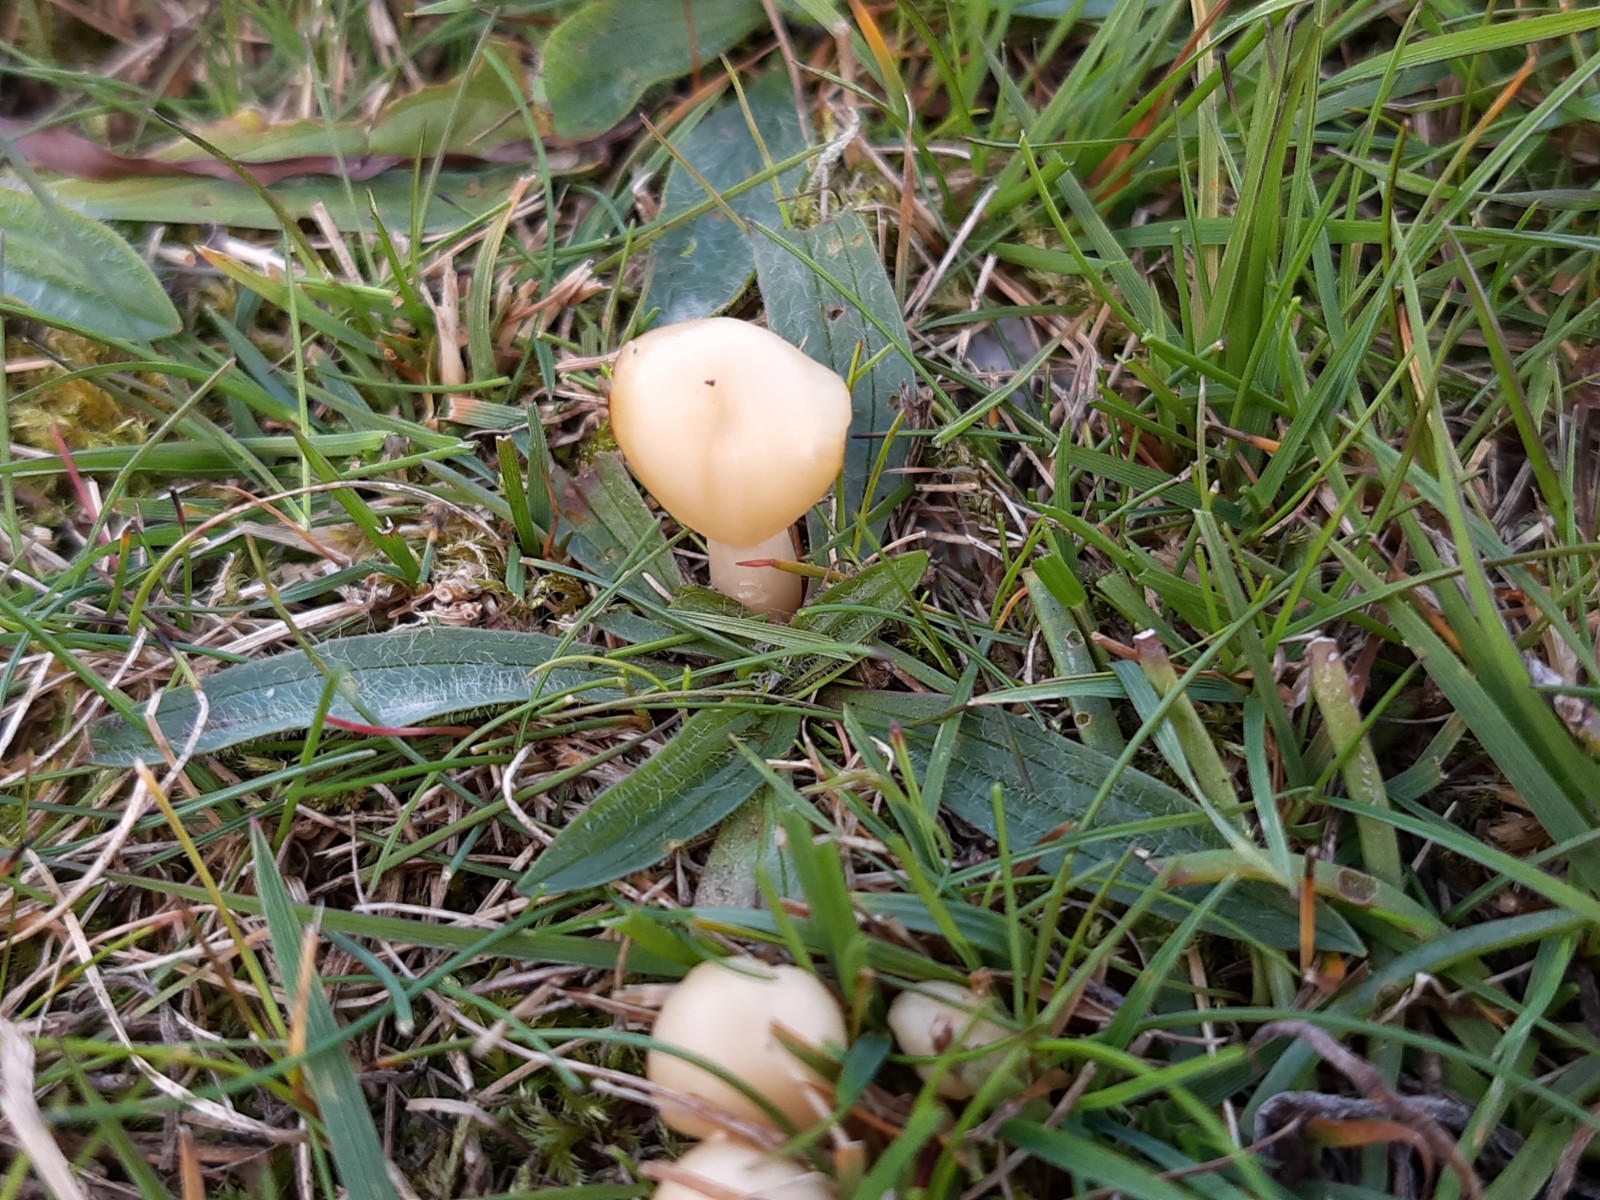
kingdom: Fungi
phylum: Basidiomycota
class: Agaricomycetes
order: Agaricales
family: Hygrophoraceae
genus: Cuphophyllus
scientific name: Cuphophyllus russocoriaceus
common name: ruslæder-vokshat
